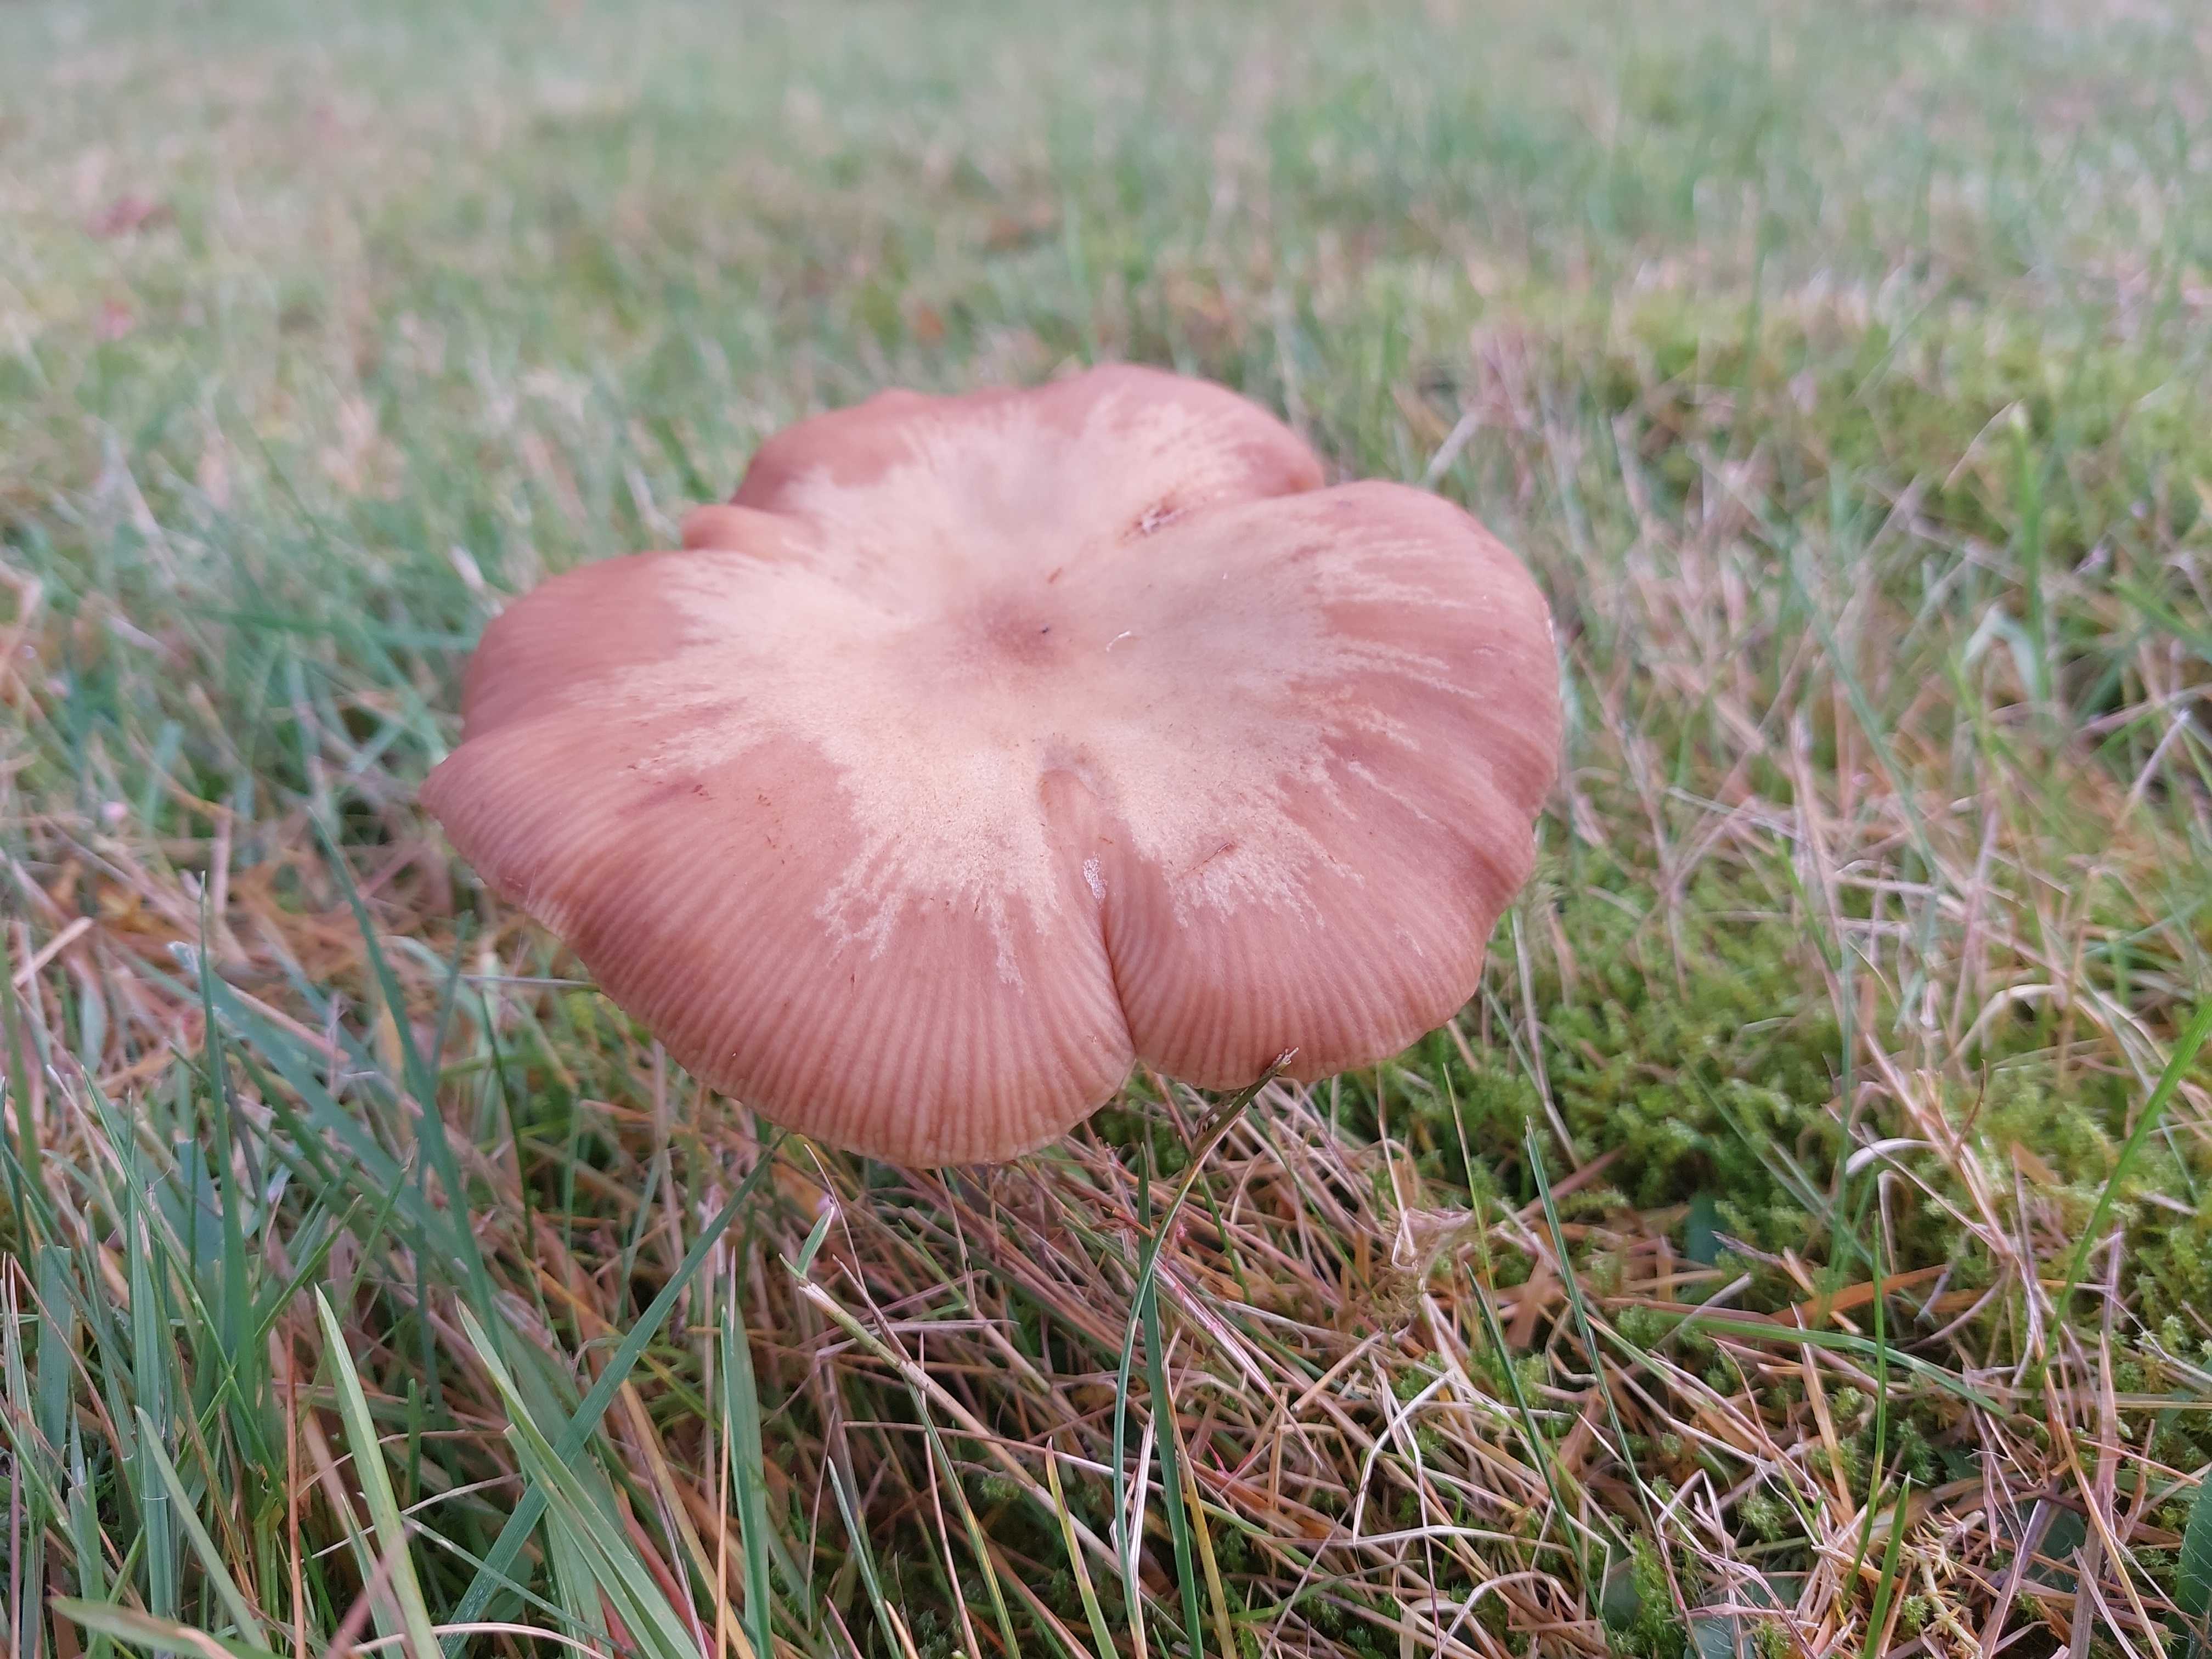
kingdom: Fungi
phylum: Basidiomycota
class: Agaricomycetes
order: Agaricales
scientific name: Agaricales
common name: champignonordenen
